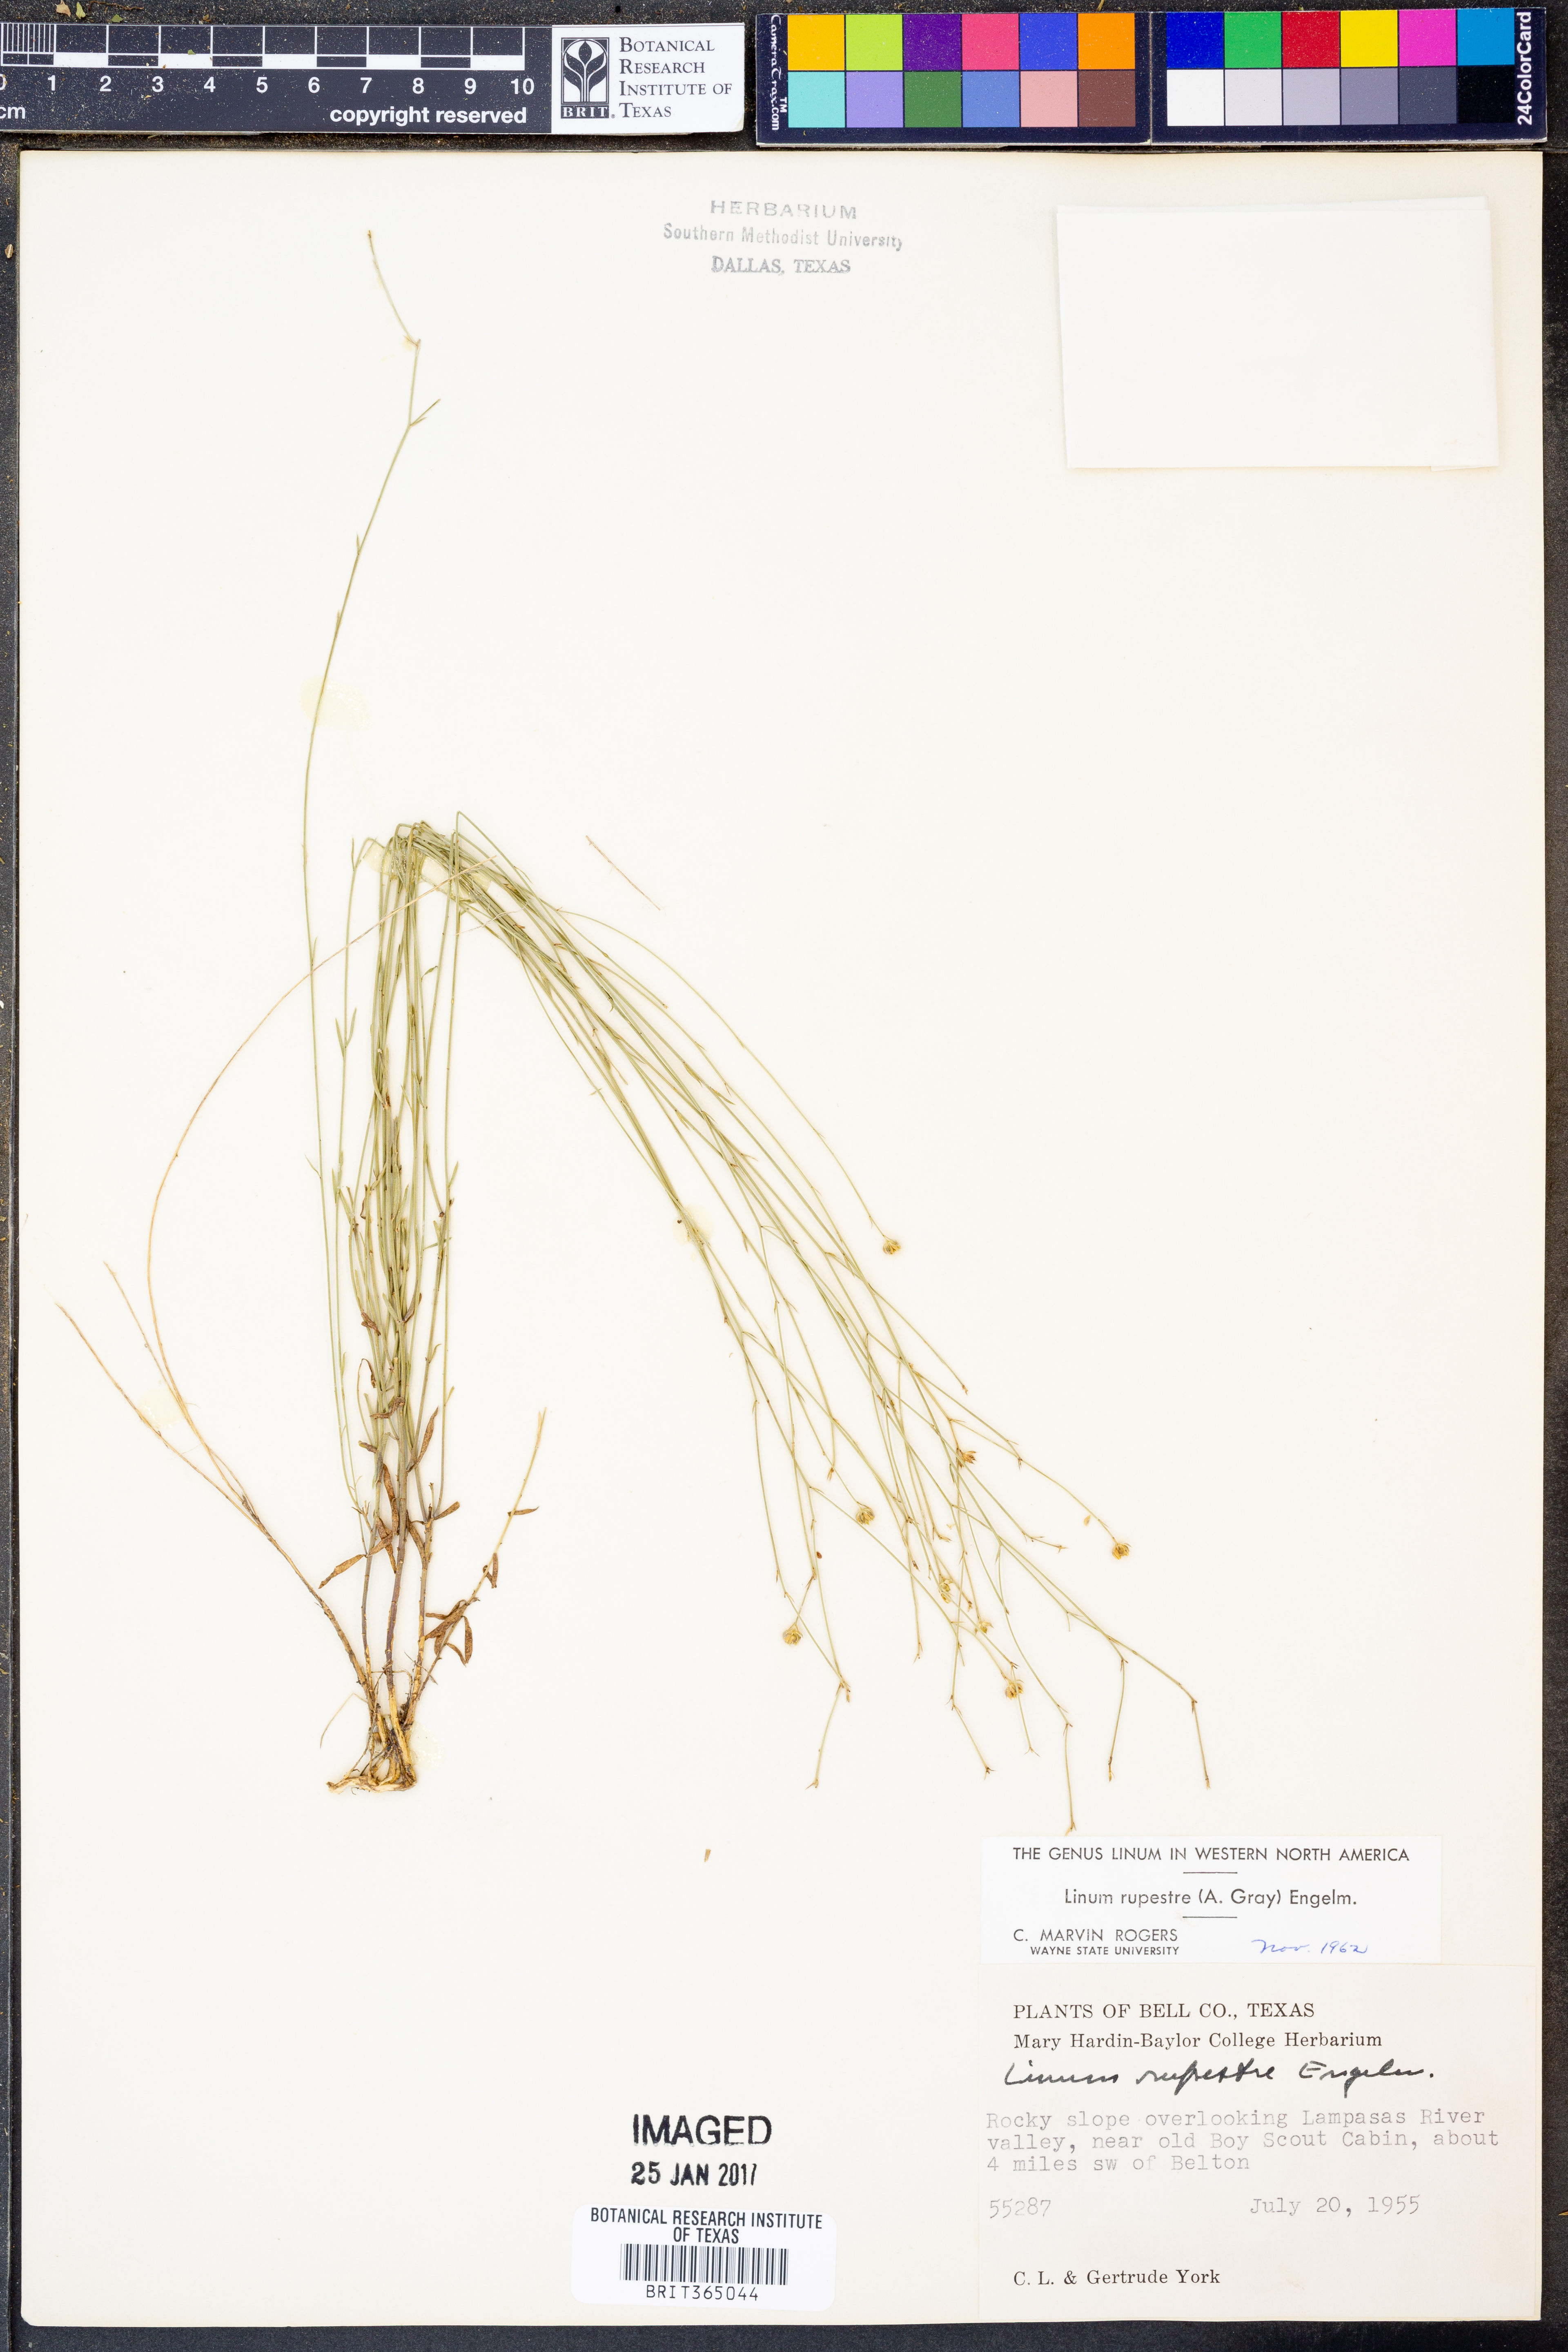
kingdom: Plantae
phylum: Tracheophyta
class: Magnoliopsida
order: Malpighiales
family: Linaceae
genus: Linum
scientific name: Linum rupestre
